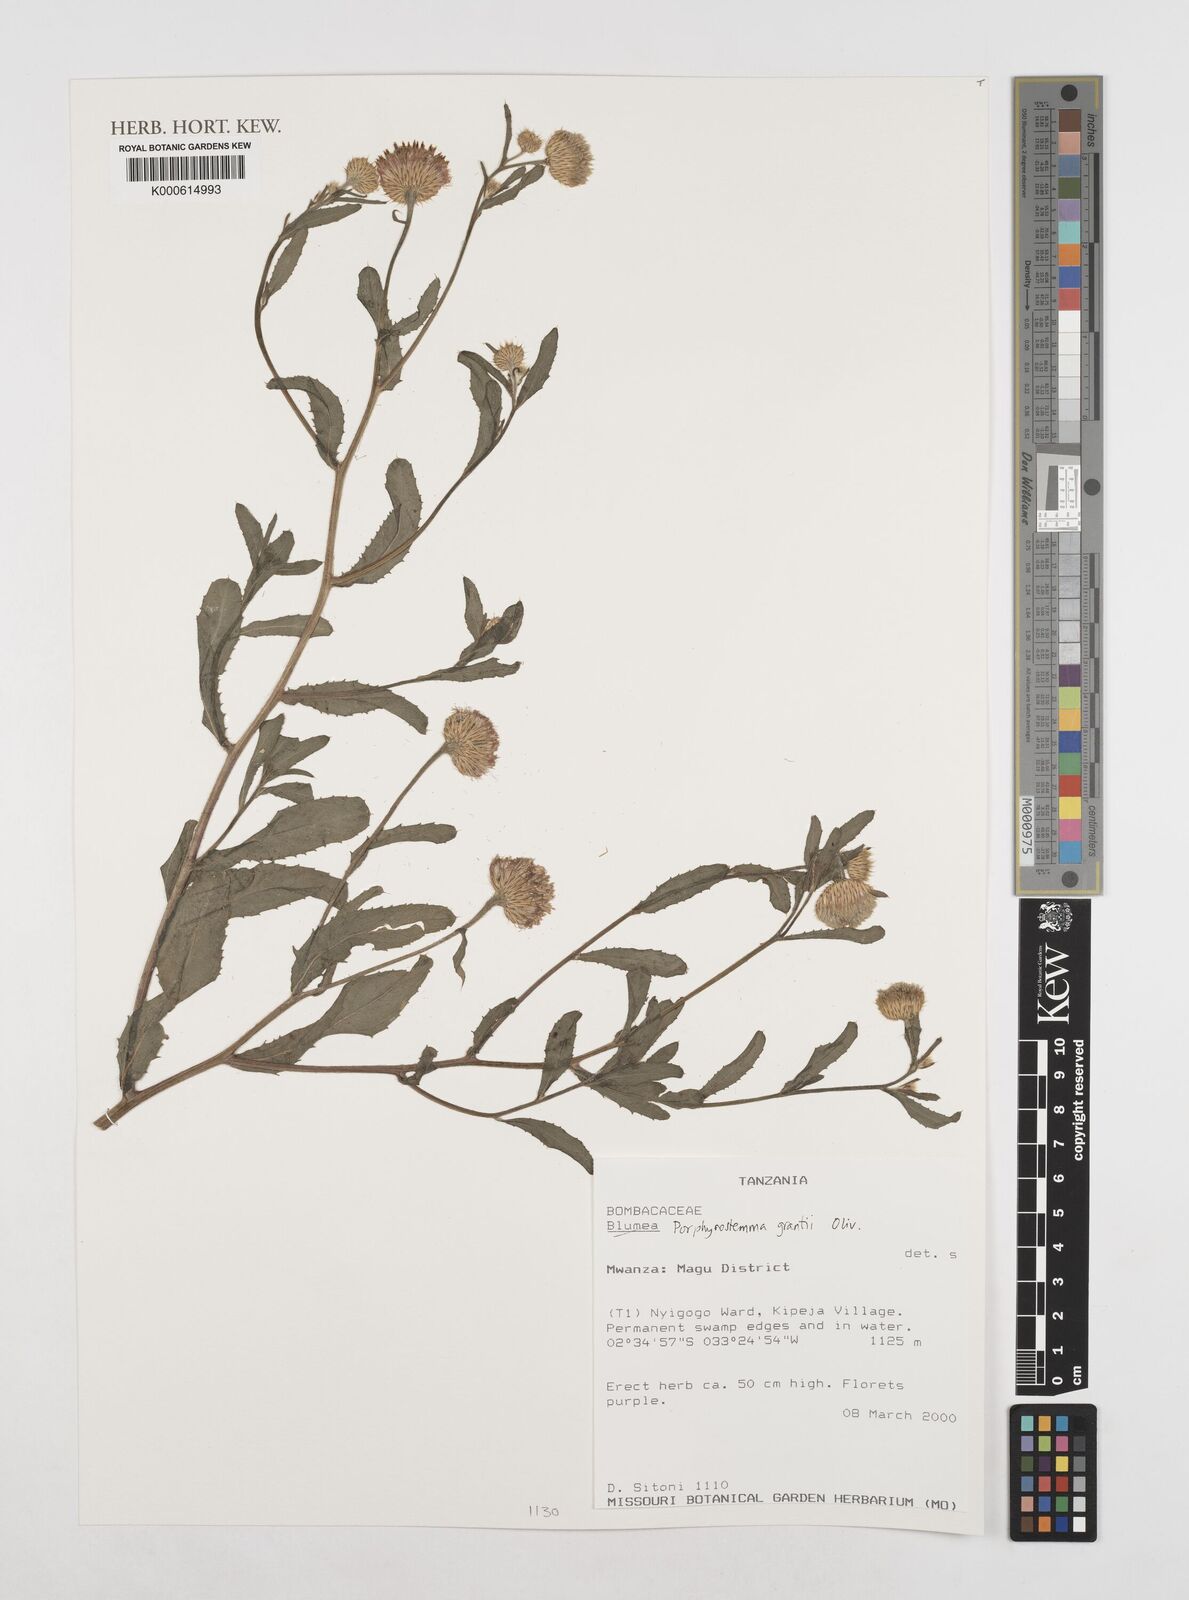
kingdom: Plantae
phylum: Tracheophyta
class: Magnoliopsida
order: Asterales
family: Asteraceae
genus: Porphyrostemma
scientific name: Porphyrostemma grantii
